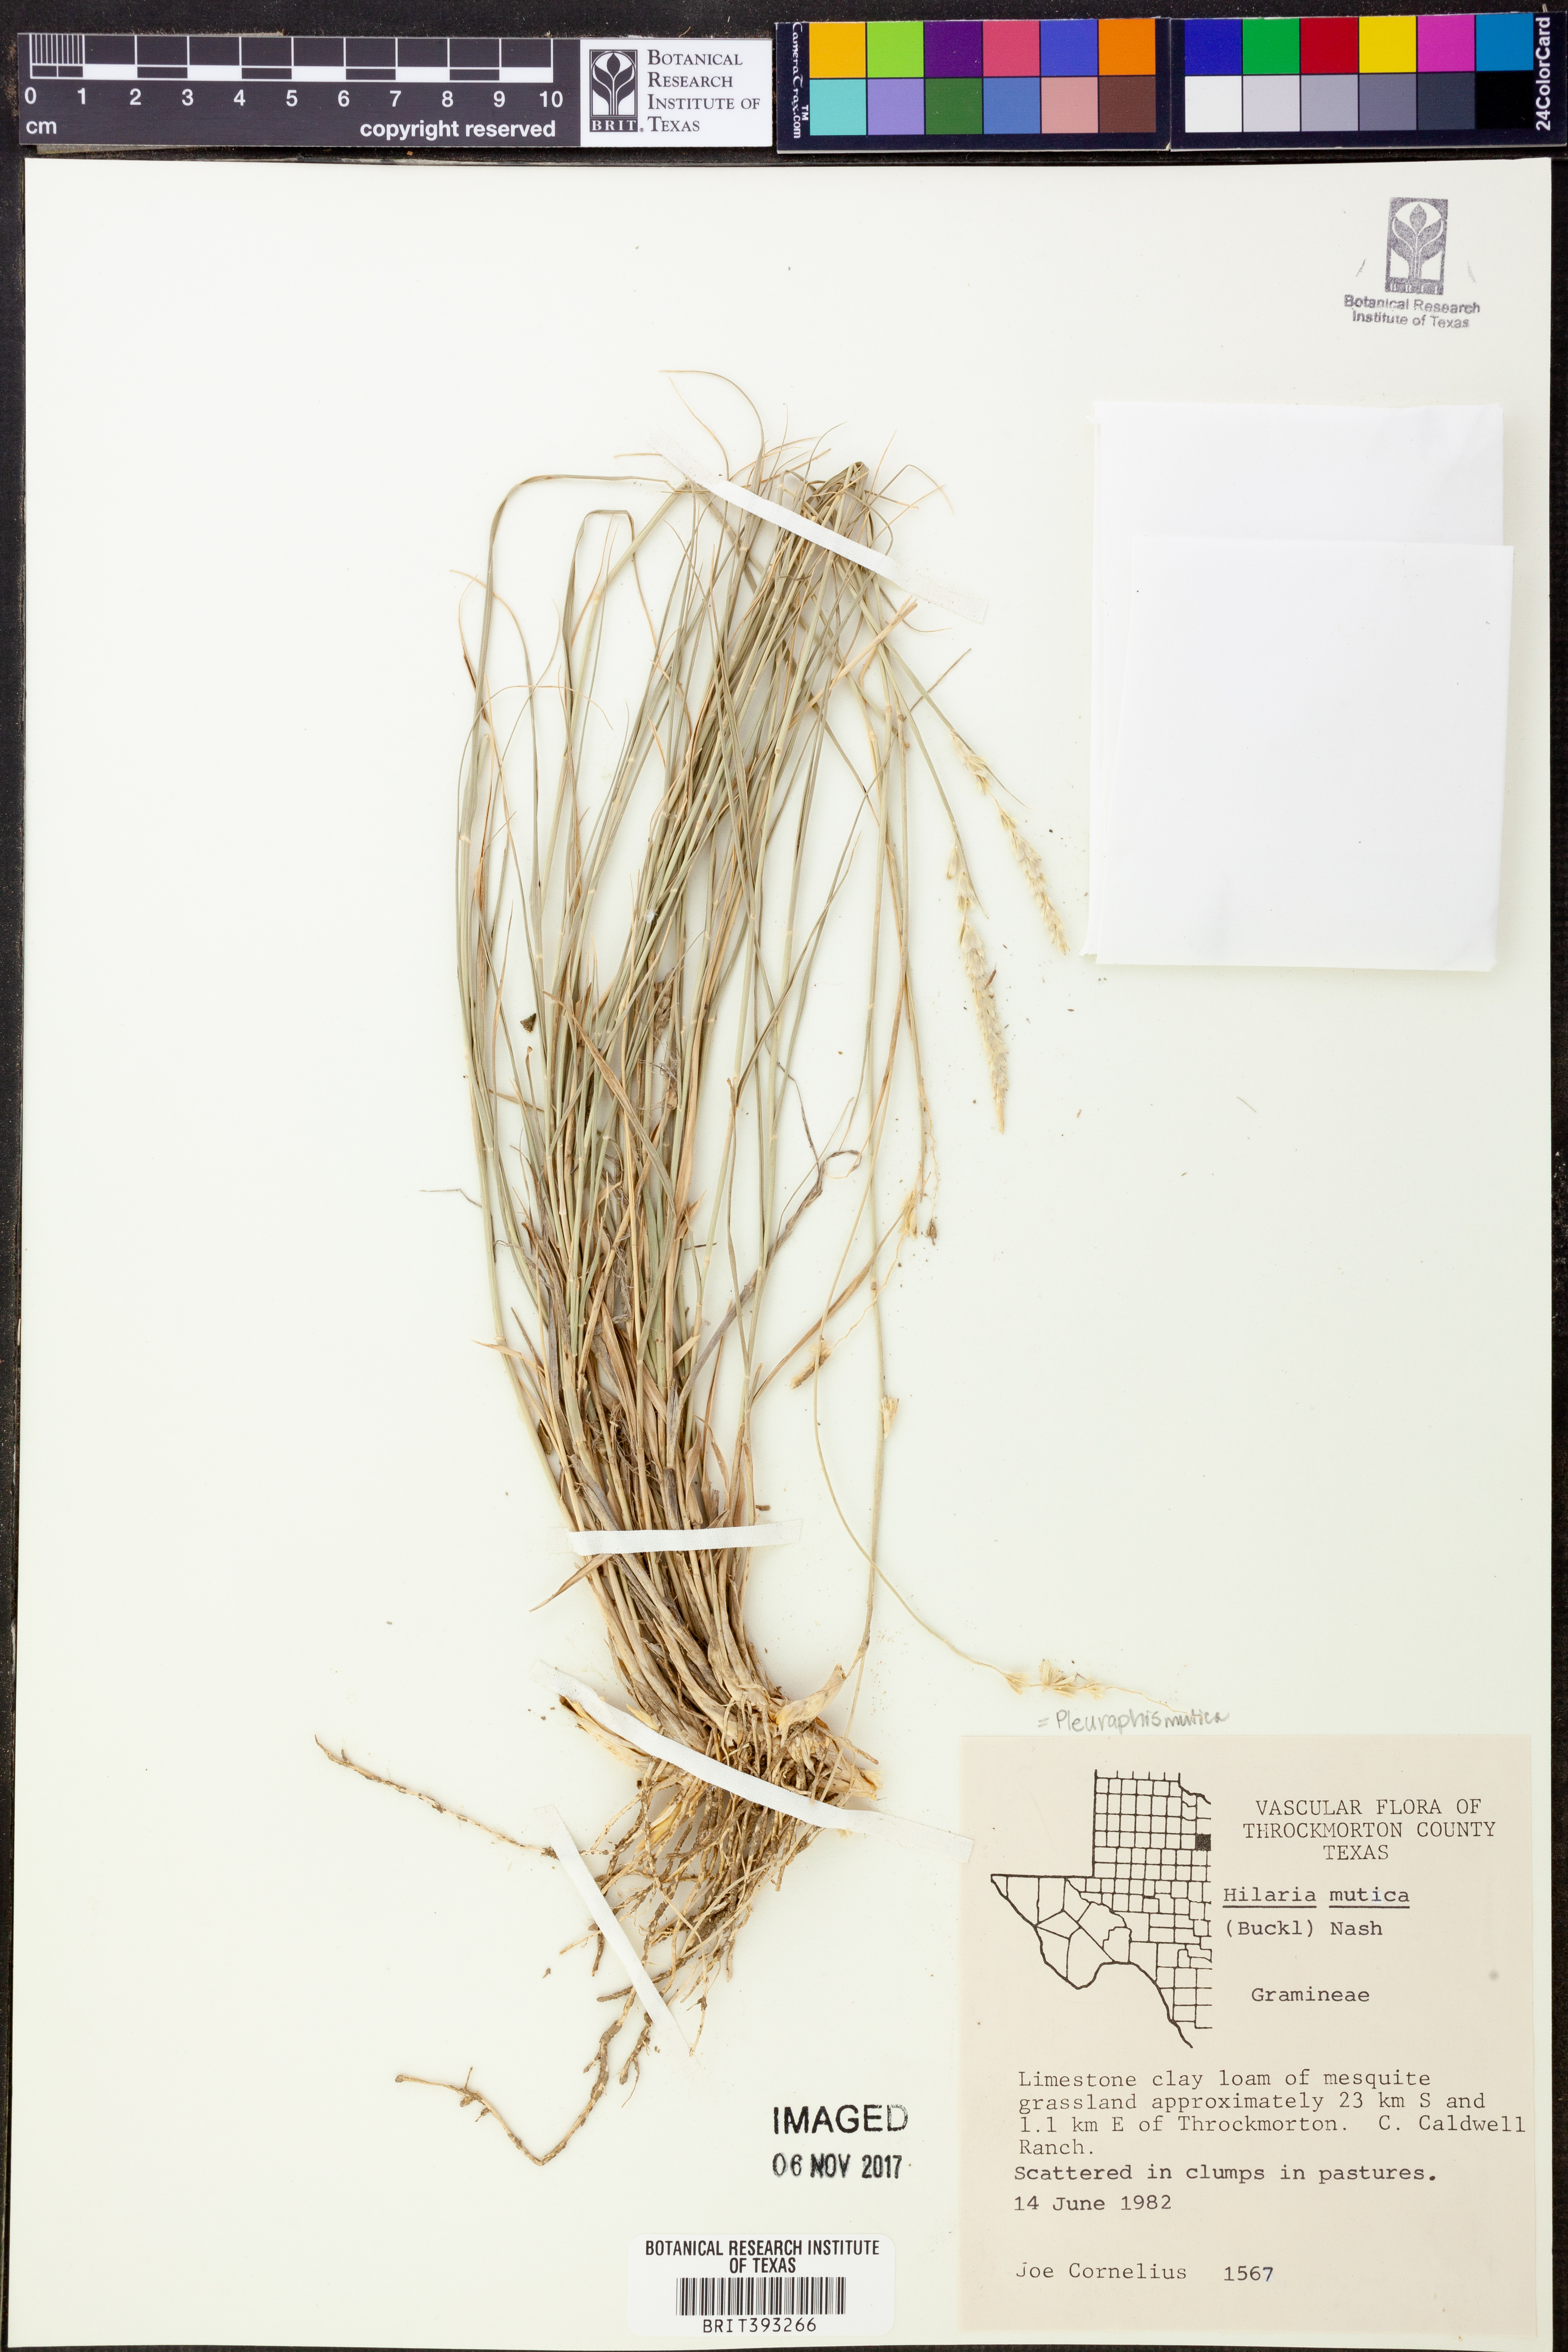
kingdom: Plantae
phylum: Tracheophyta
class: Liliopsida
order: Poales
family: Poaceae
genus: Hilaria
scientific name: Hilaria mutica
